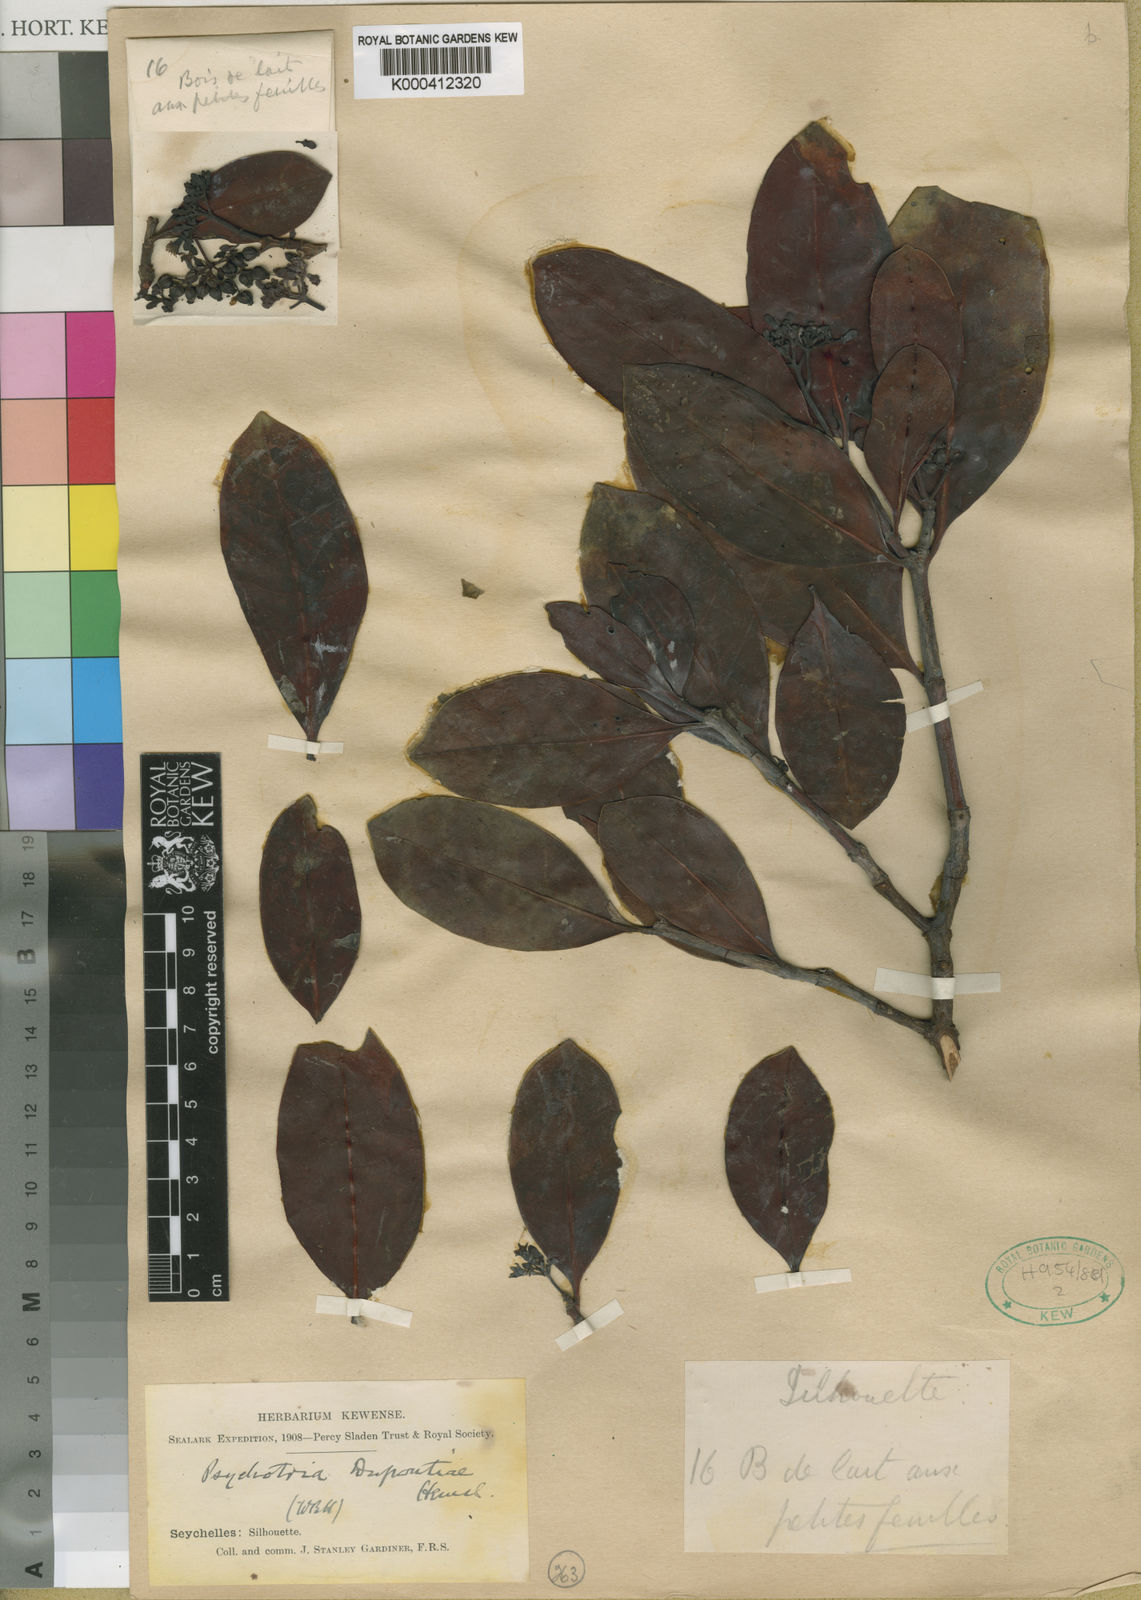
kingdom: Plantae
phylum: Tracheophyta
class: Magnoliopsida
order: Gentianales
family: Rubiaceae
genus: Psychotria
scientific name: Psychotria pervillei
